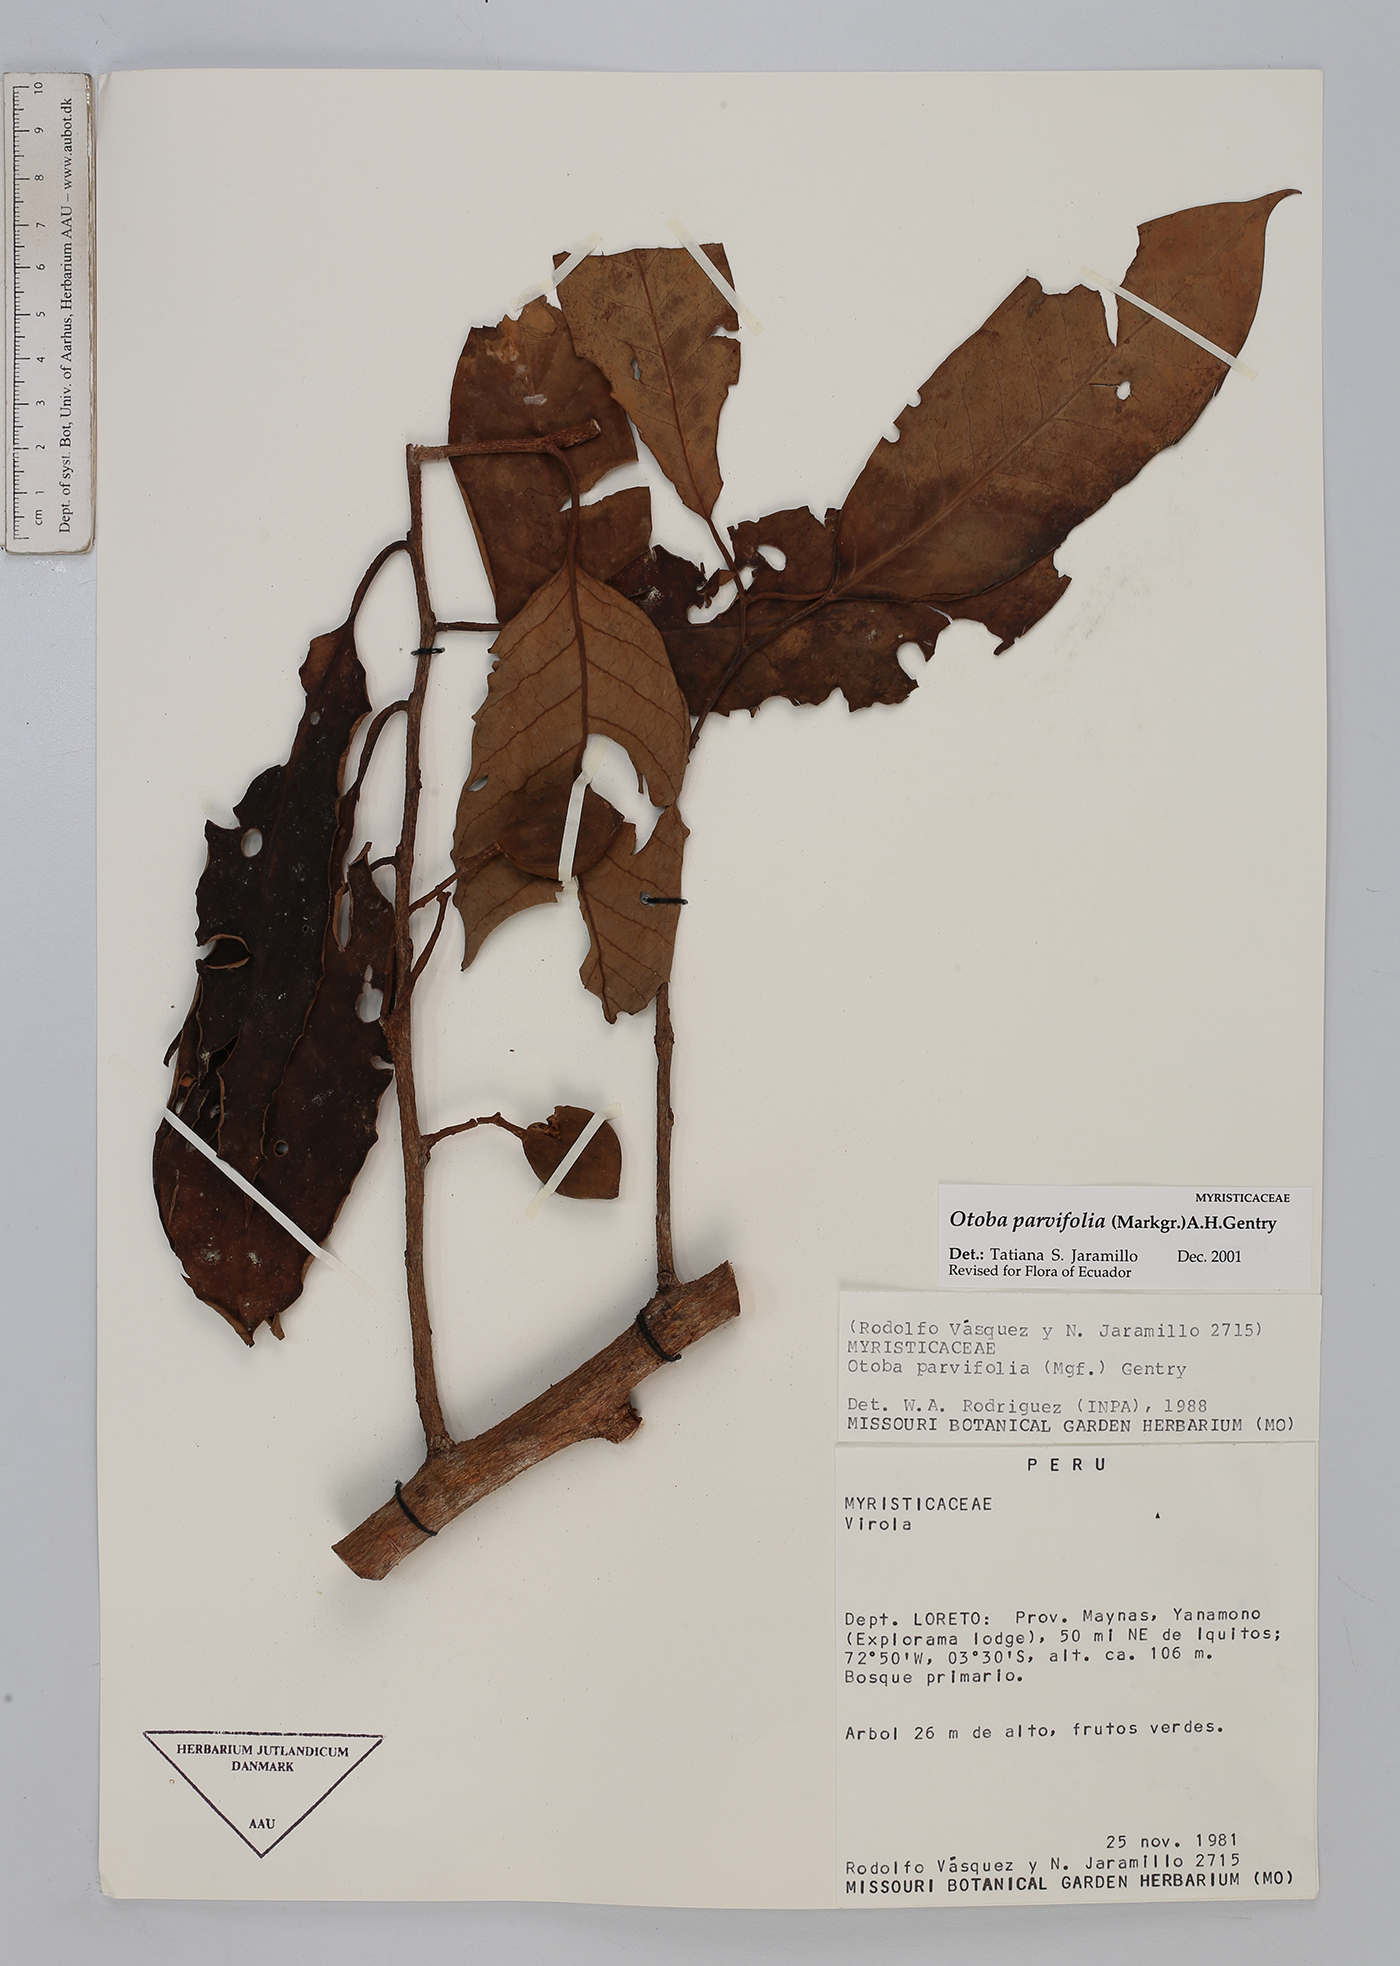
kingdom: Plantae
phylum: Tracheophyta
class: Magnoliopsida
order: Magnoliales
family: Myristicaceae
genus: Otoba
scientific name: Otoba parvifolia
